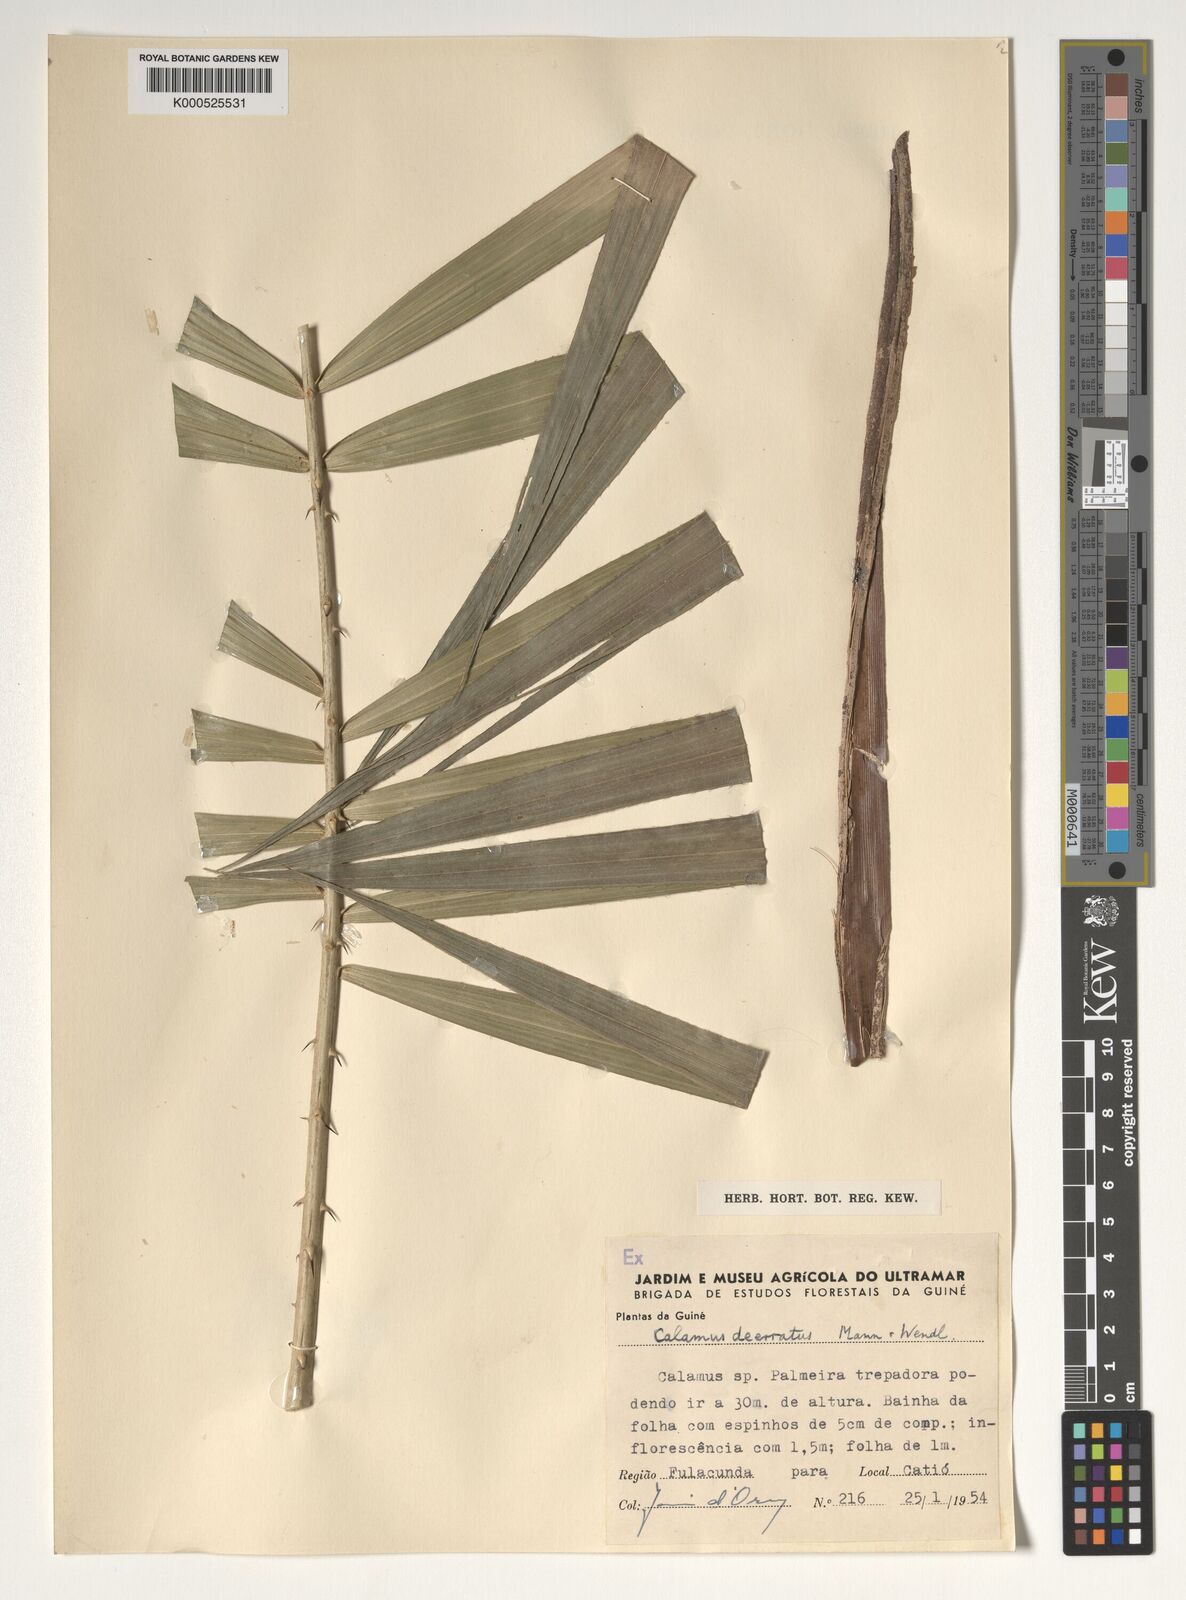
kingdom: Plantae
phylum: Tracheophyta
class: Liliopsida
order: Arecales
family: Arecaceae
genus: Calamus
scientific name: Calamus deerratus
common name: Rattan
